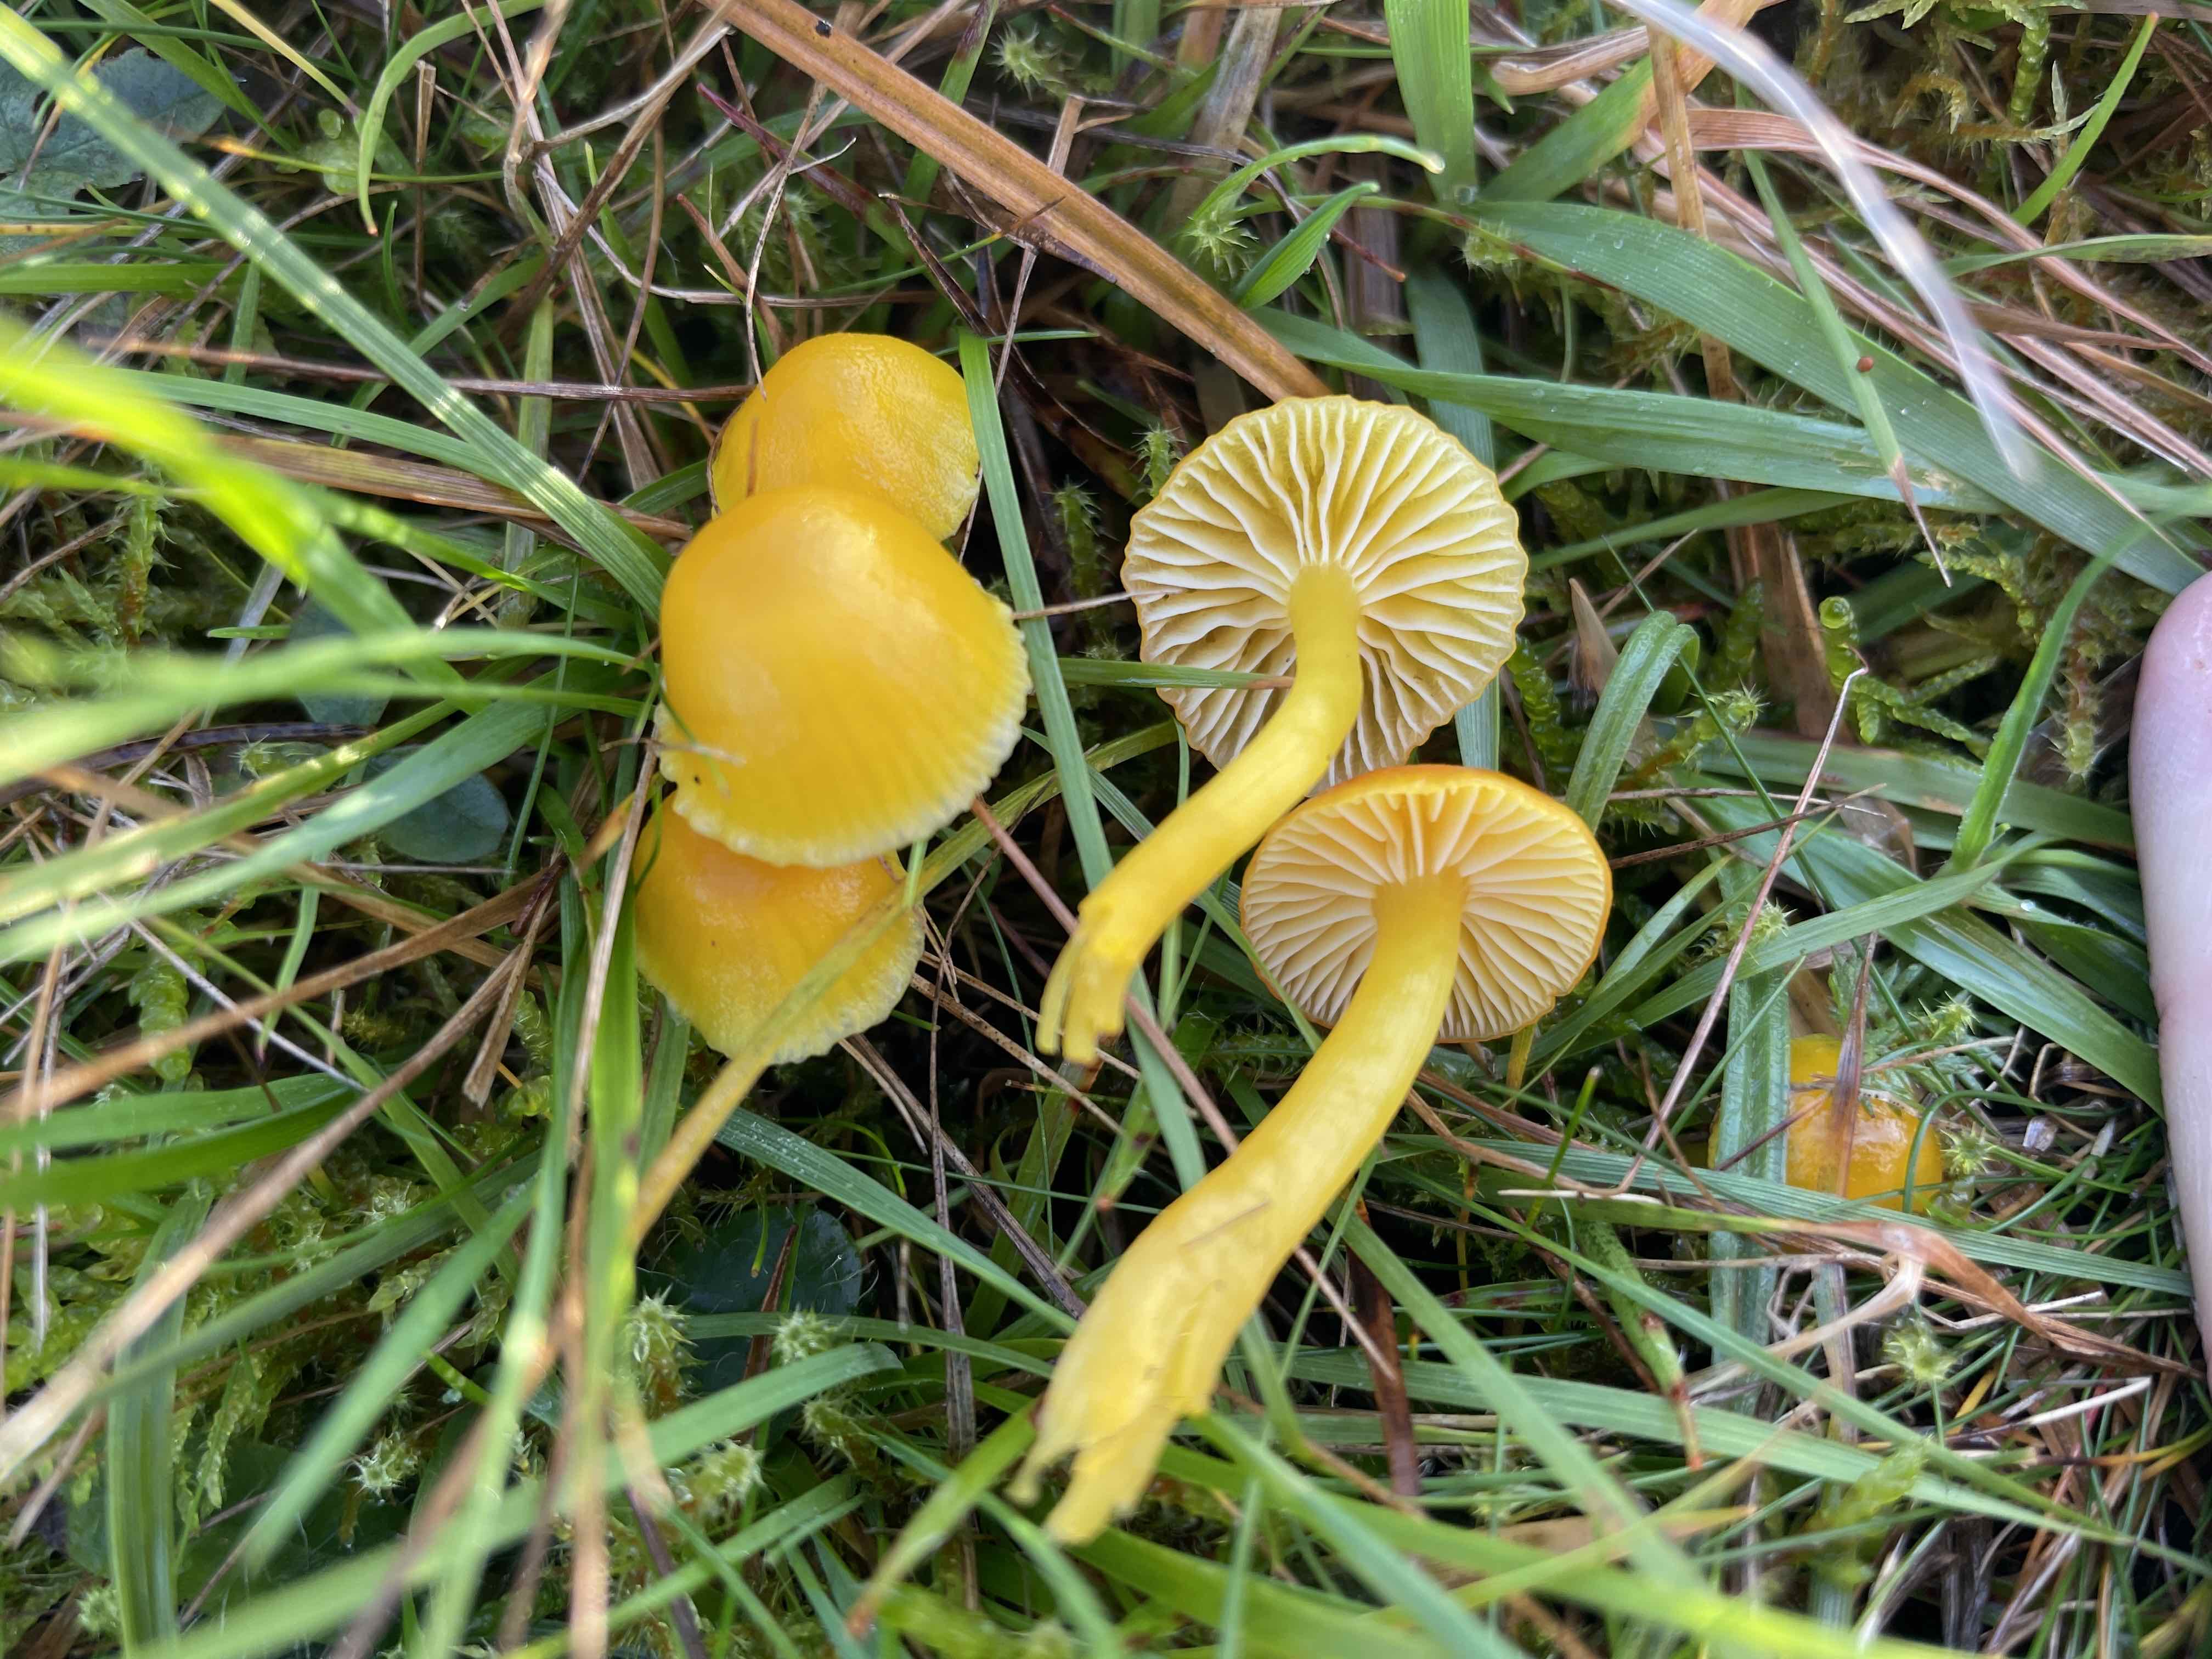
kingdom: Fungi
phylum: Basidiomycota
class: Agaricomycetes
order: Agaricales
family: Hygrophoraceae
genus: Hygrocybe
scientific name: Hygrocybe ceracea
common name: voksgul vokshat
